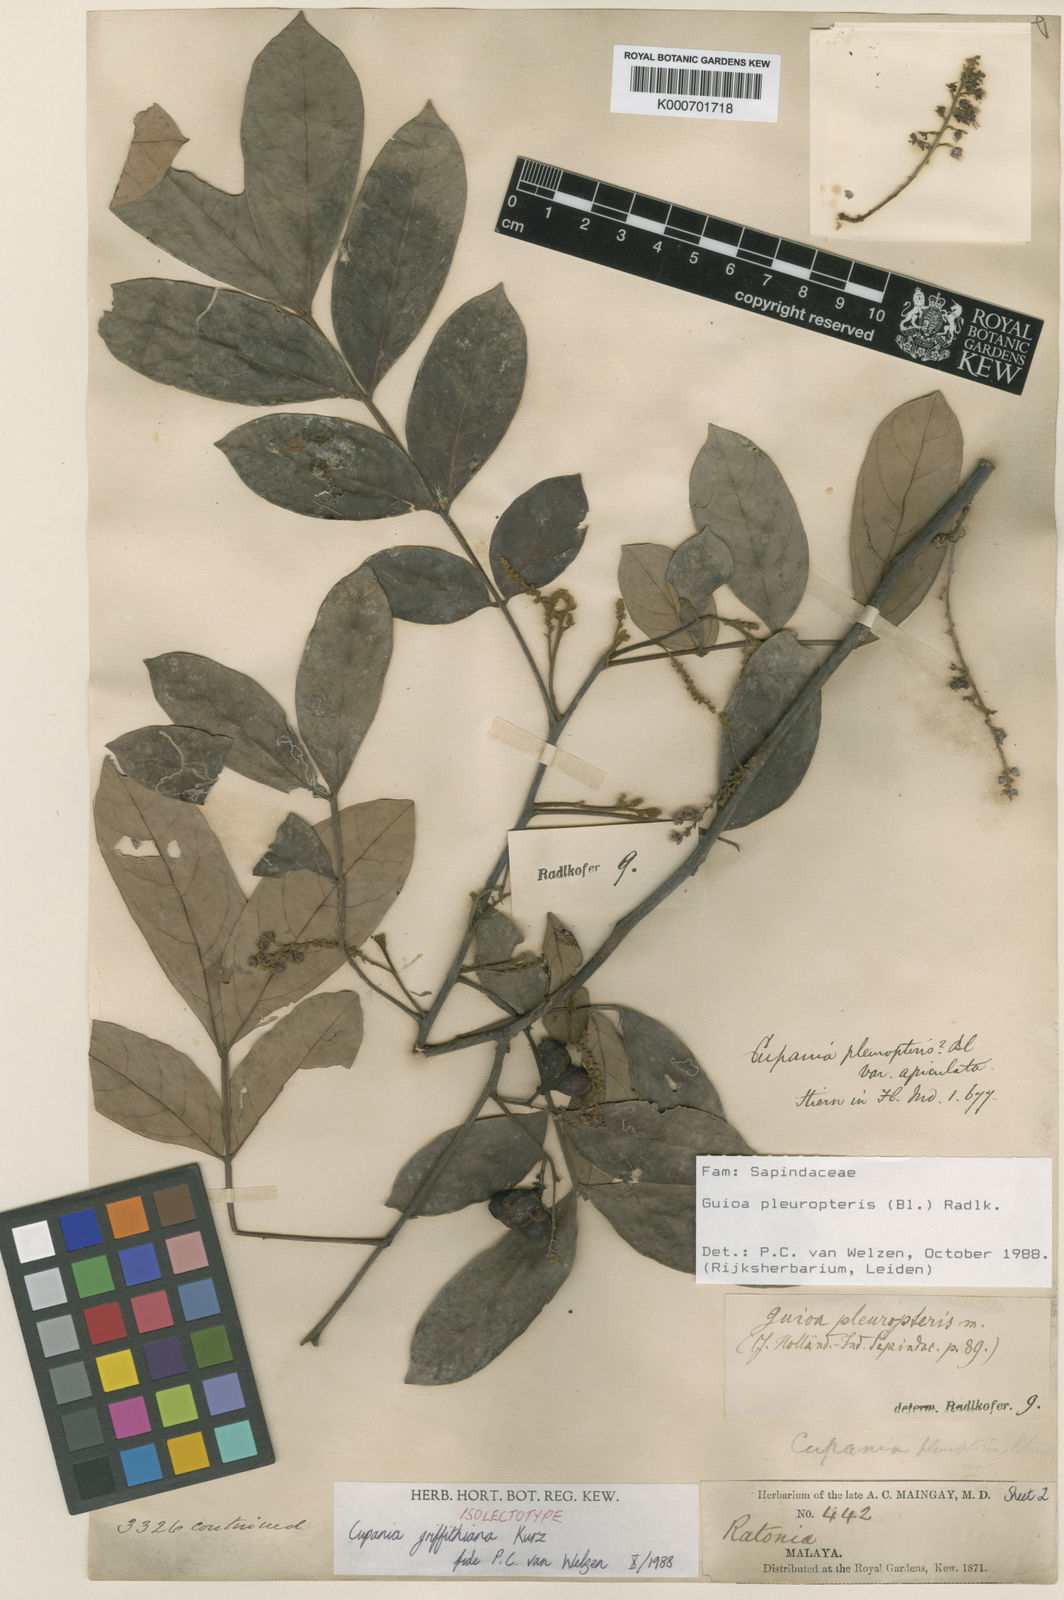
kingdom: Plantae
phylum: Tracheophyta
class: Magnoliopsida
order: Sapindales
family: Sapindaceae
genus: Guioa
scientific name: Guioa pleuropteris
